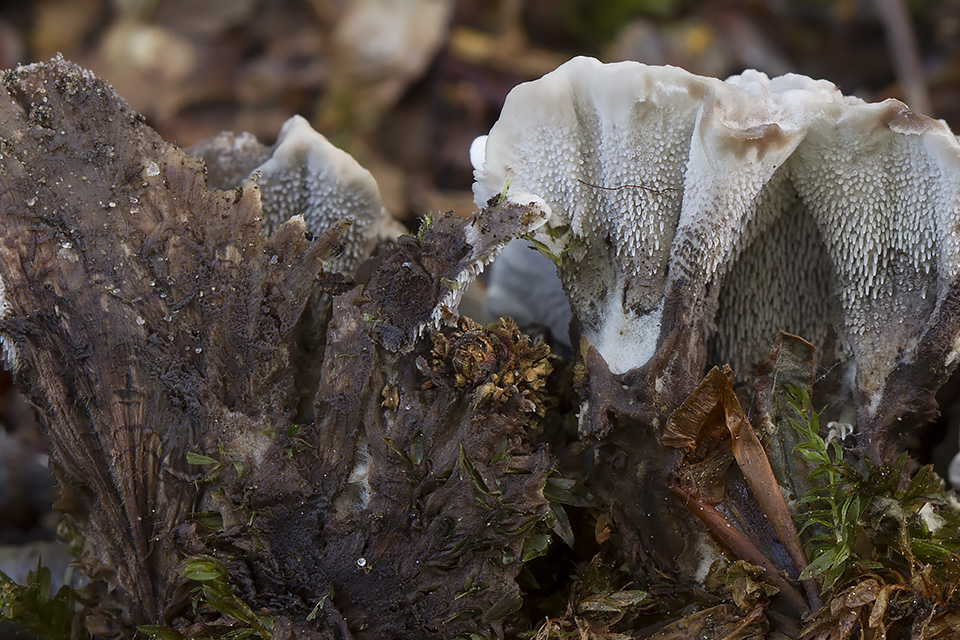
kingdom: Fungi
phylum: Basidiomycota
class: Agaricomycetes
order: Thelephorales
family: Thelephoraceae
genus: Phellodon
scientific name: Phellodon confluens
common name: pjaltet duftpigsvamp
